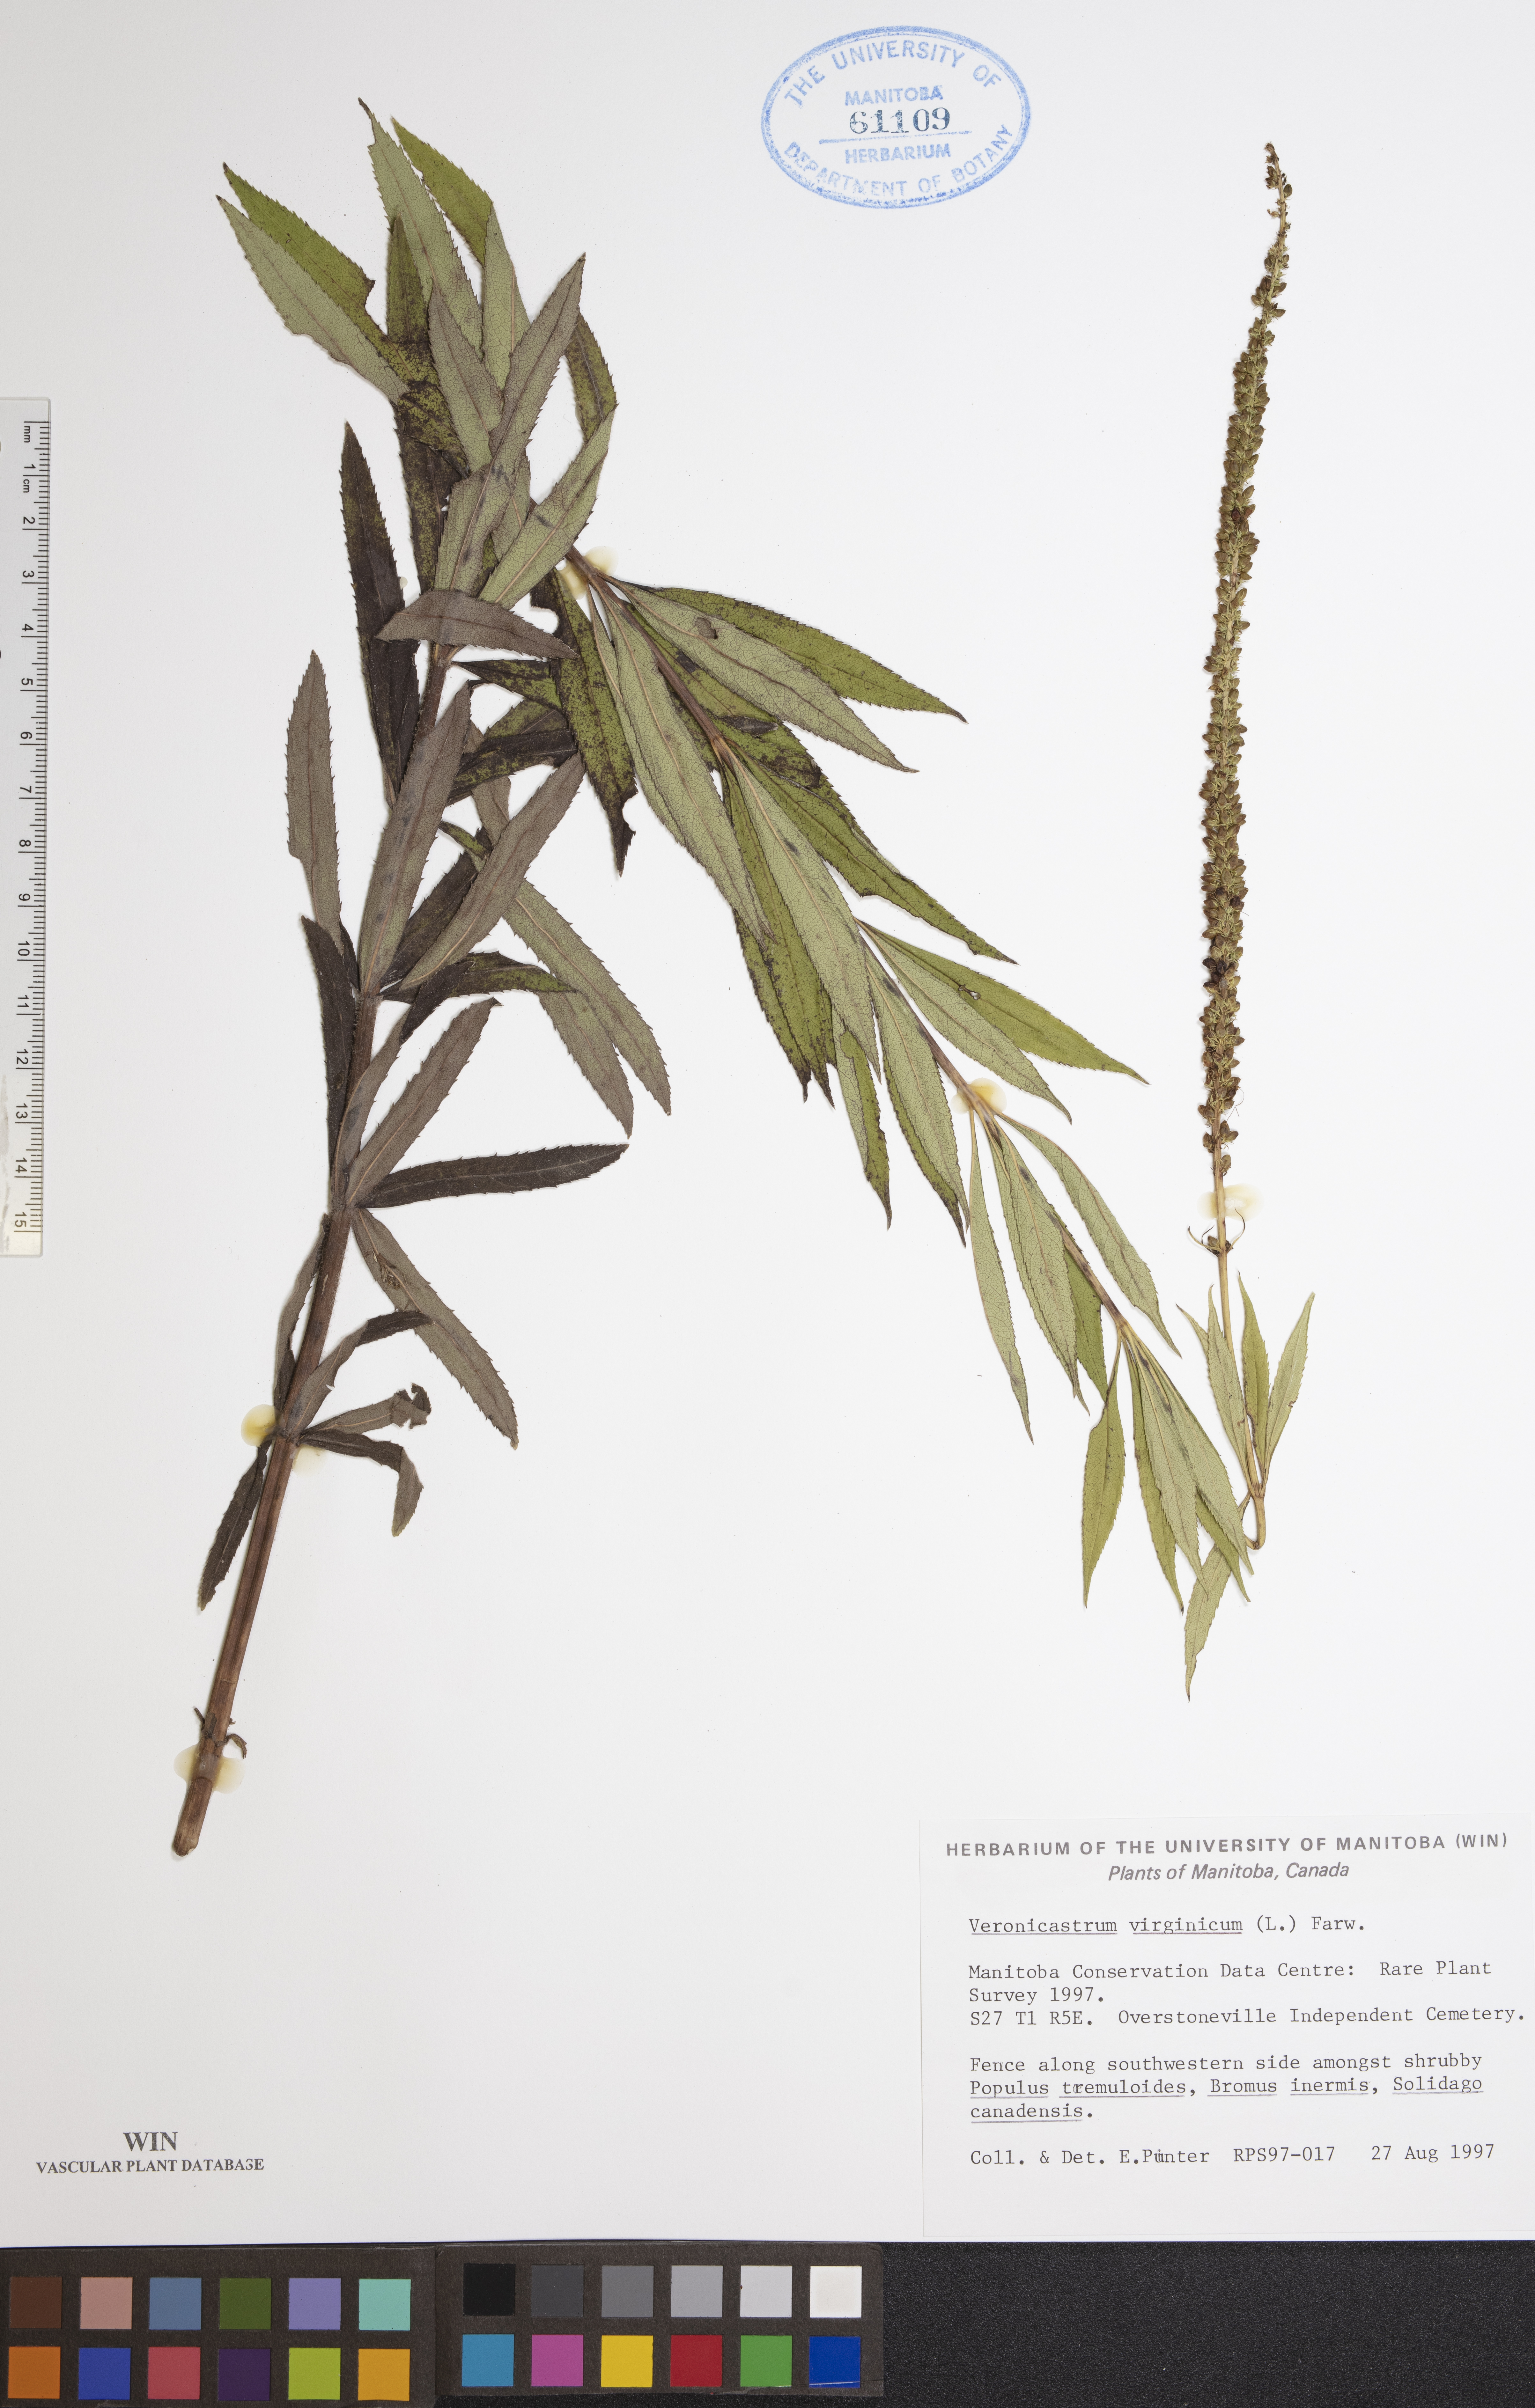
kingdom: Plantae
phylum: Tracheophyta
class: Magnoliopsida
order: Lamiales
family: Plantaginaceae
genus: Veronicastrum
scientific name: Veronicastrum virginicum
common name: Blackroot
